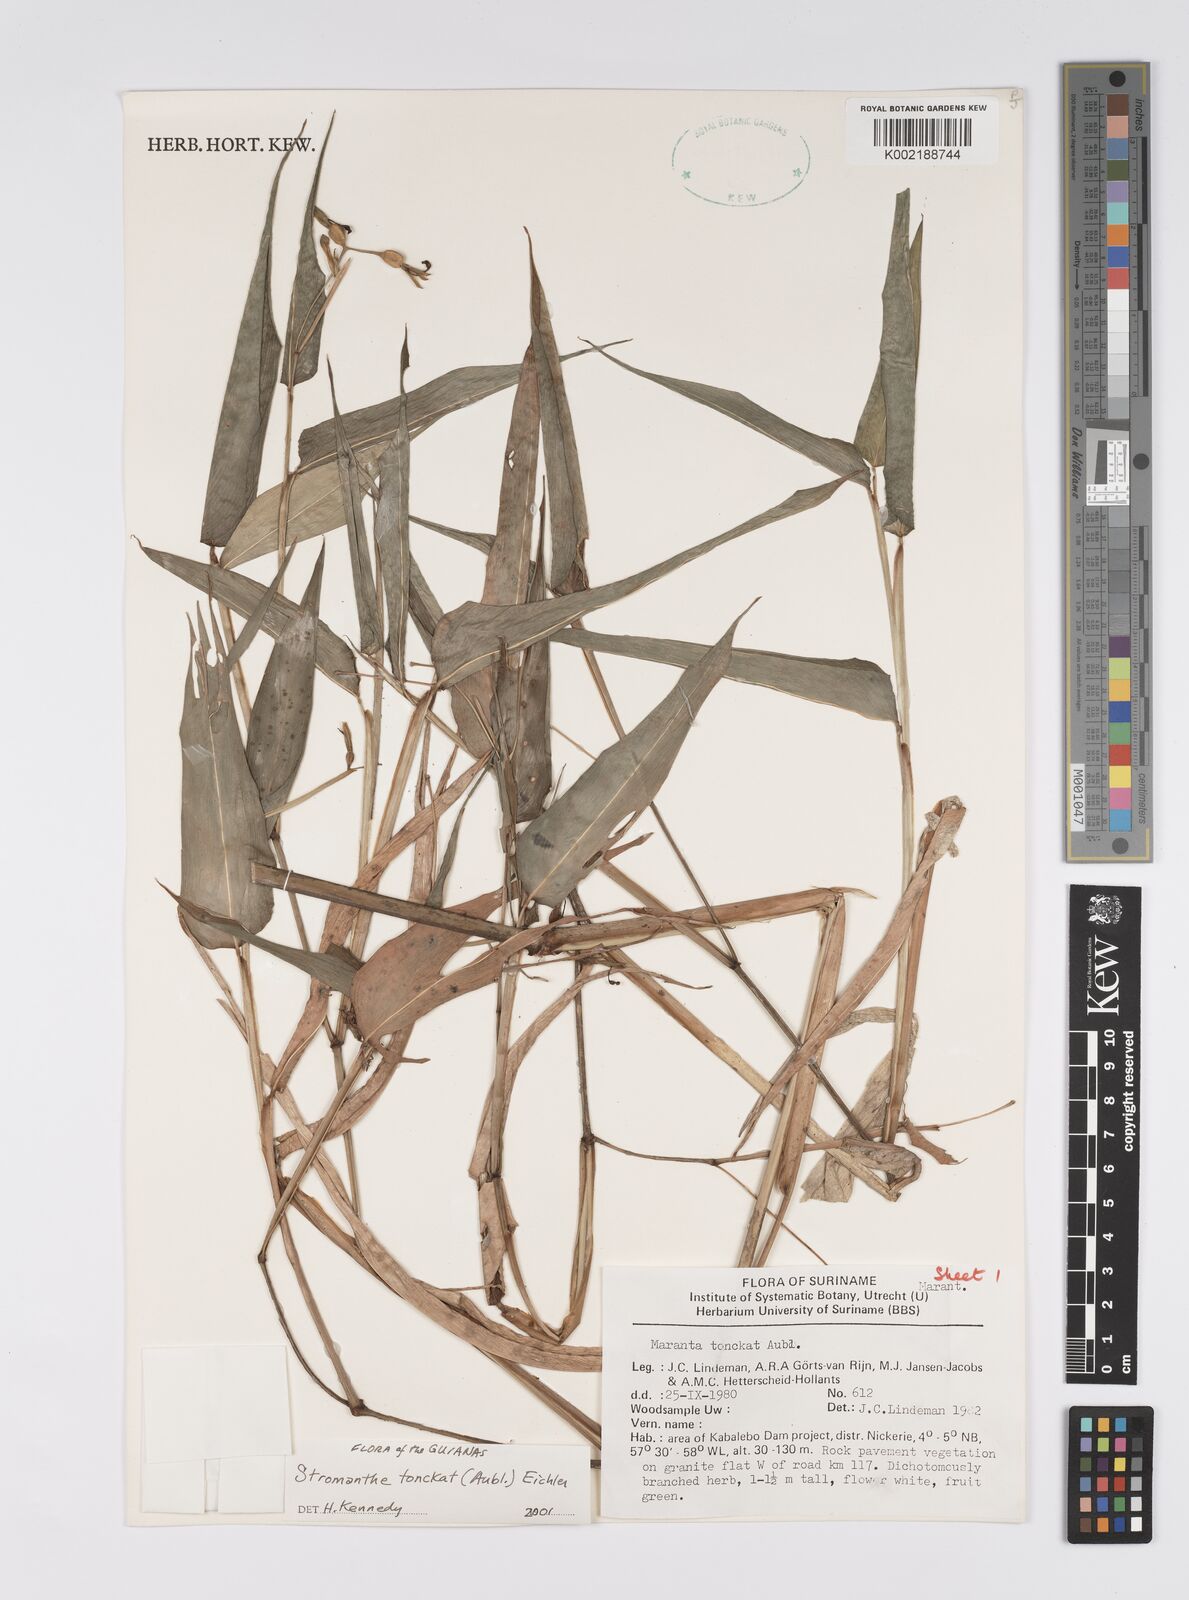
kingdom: Plantae
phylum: Tracheophyta
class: Liliopsida
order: Zingiberales
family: Marantaceae
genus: Stromanthe
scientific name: Stromanthe tonckat
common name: Stromanthe
